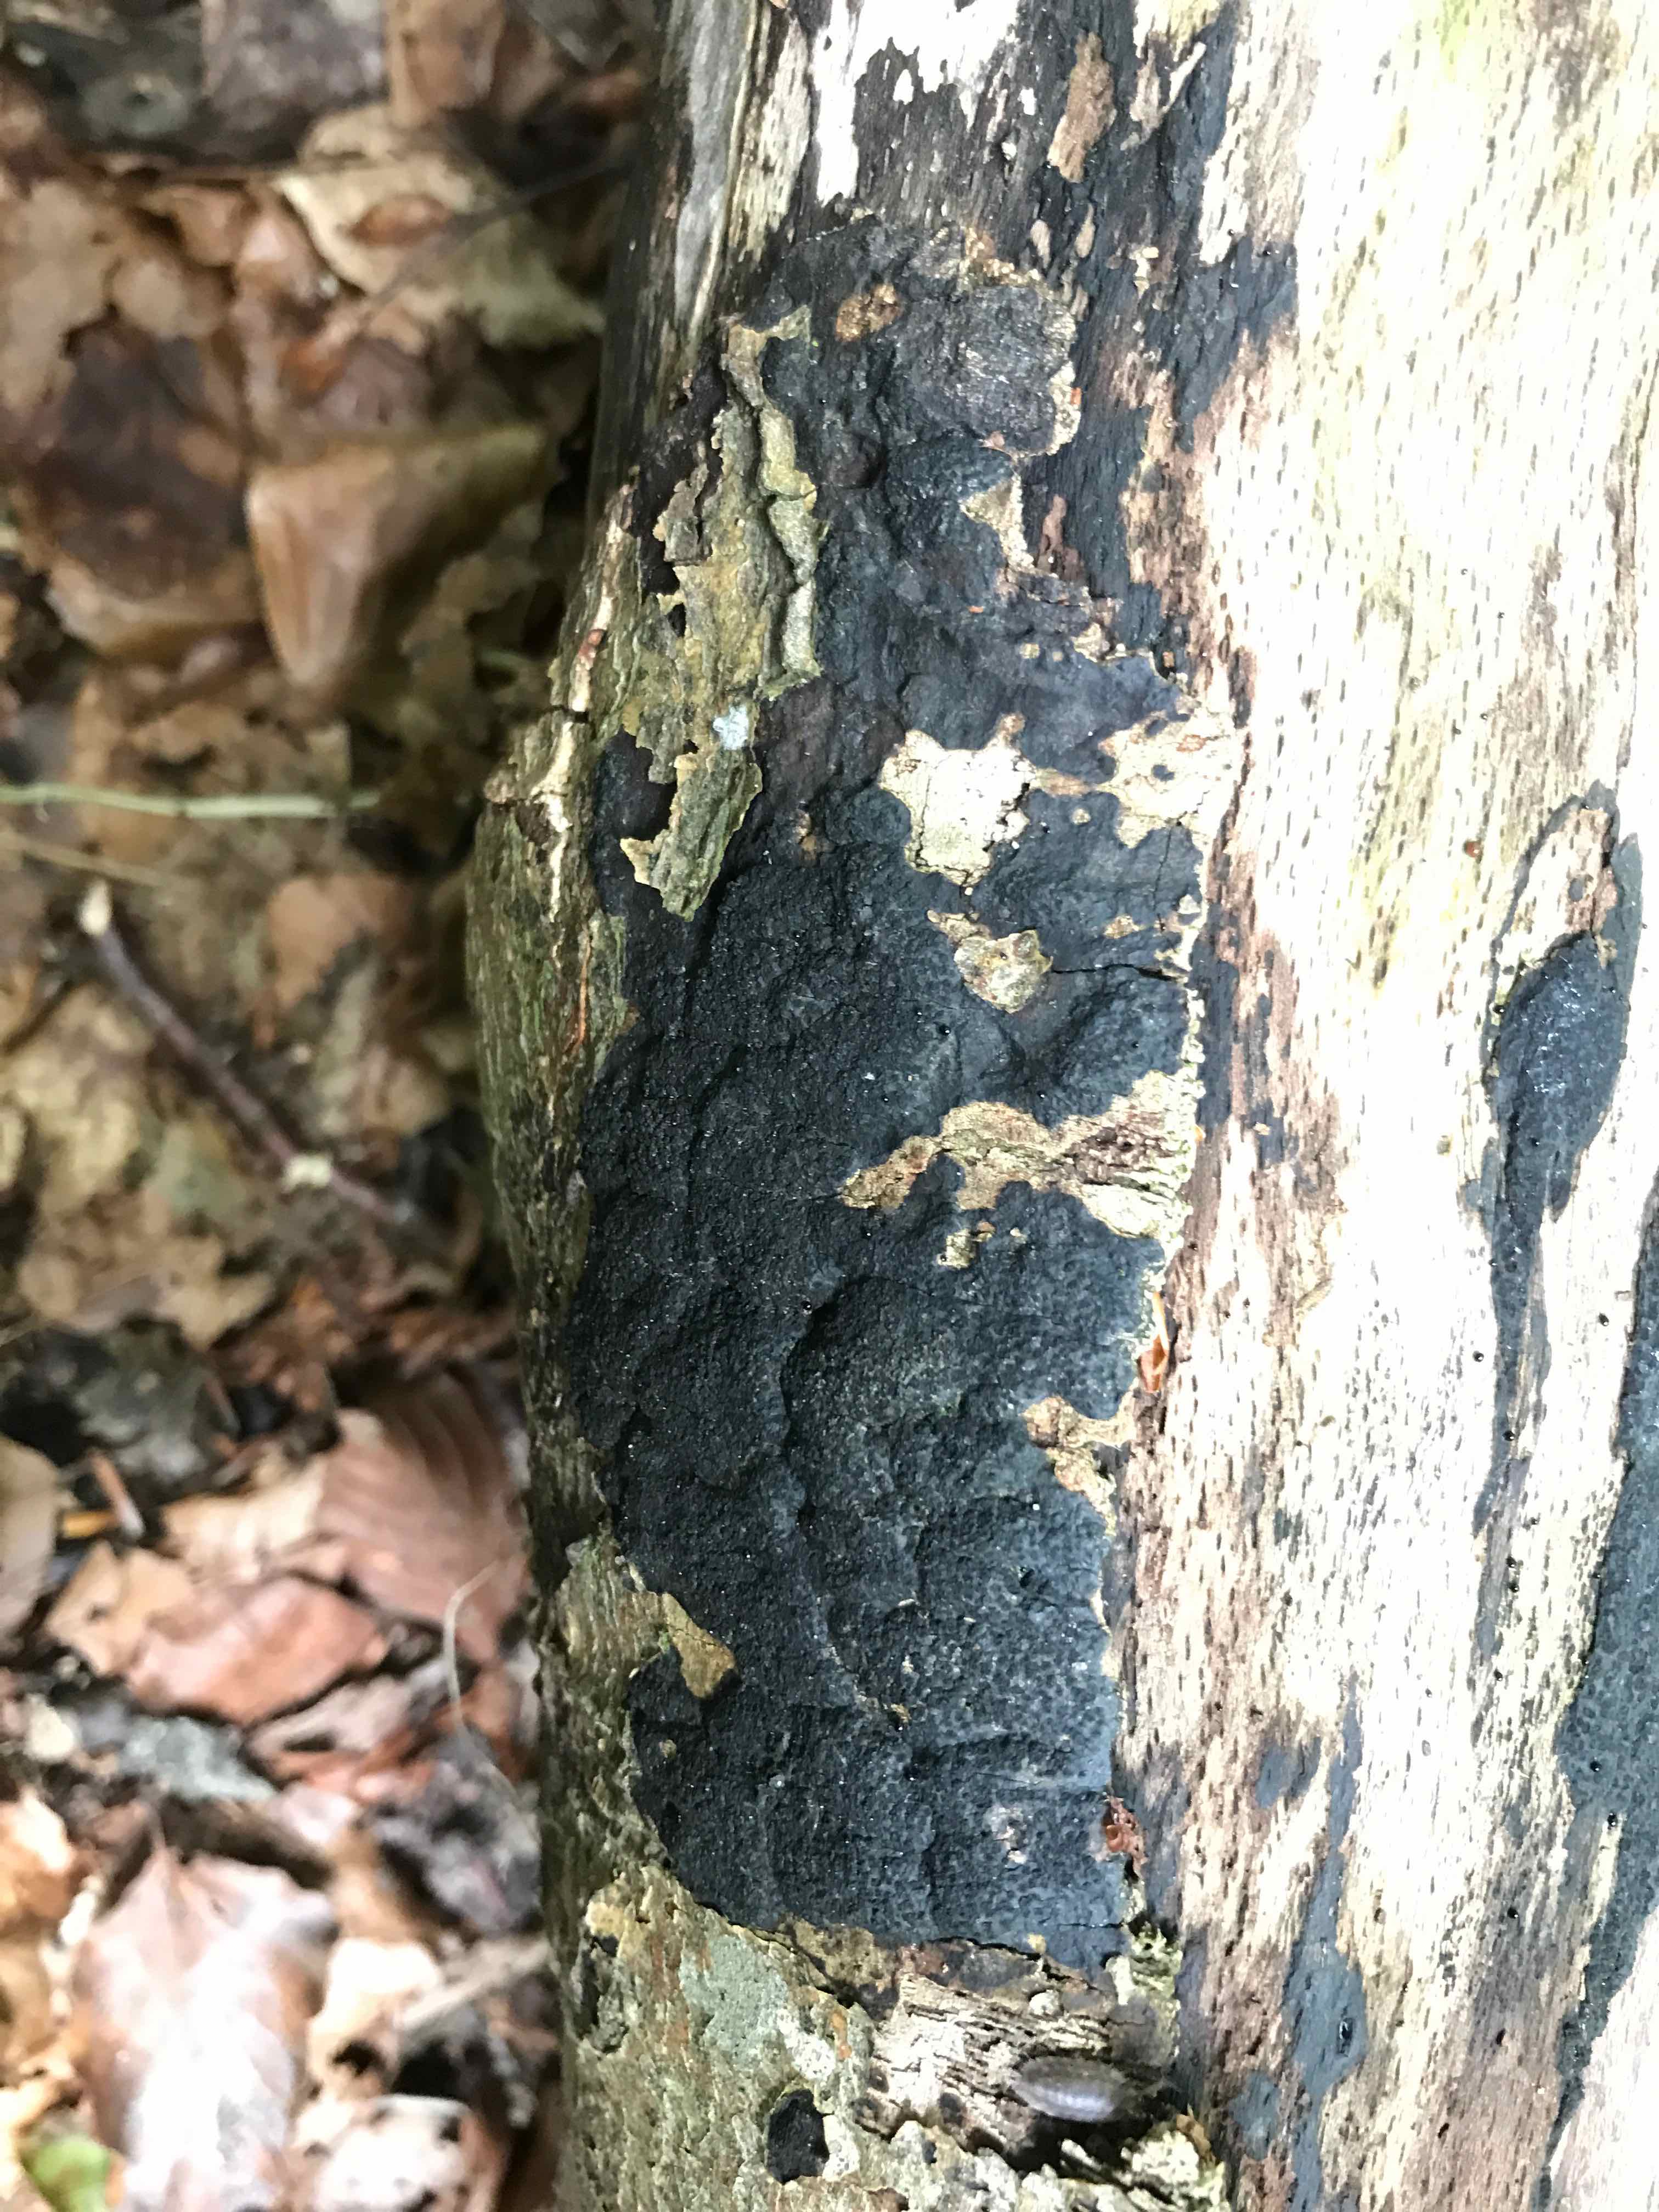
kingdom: Fungi
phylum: Ascomycota
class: Sordariomycetes
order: Xylariales
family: Diatrypaceae
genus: Eutypa
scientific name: Eutypa spinosa
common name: grov kulskorpe
